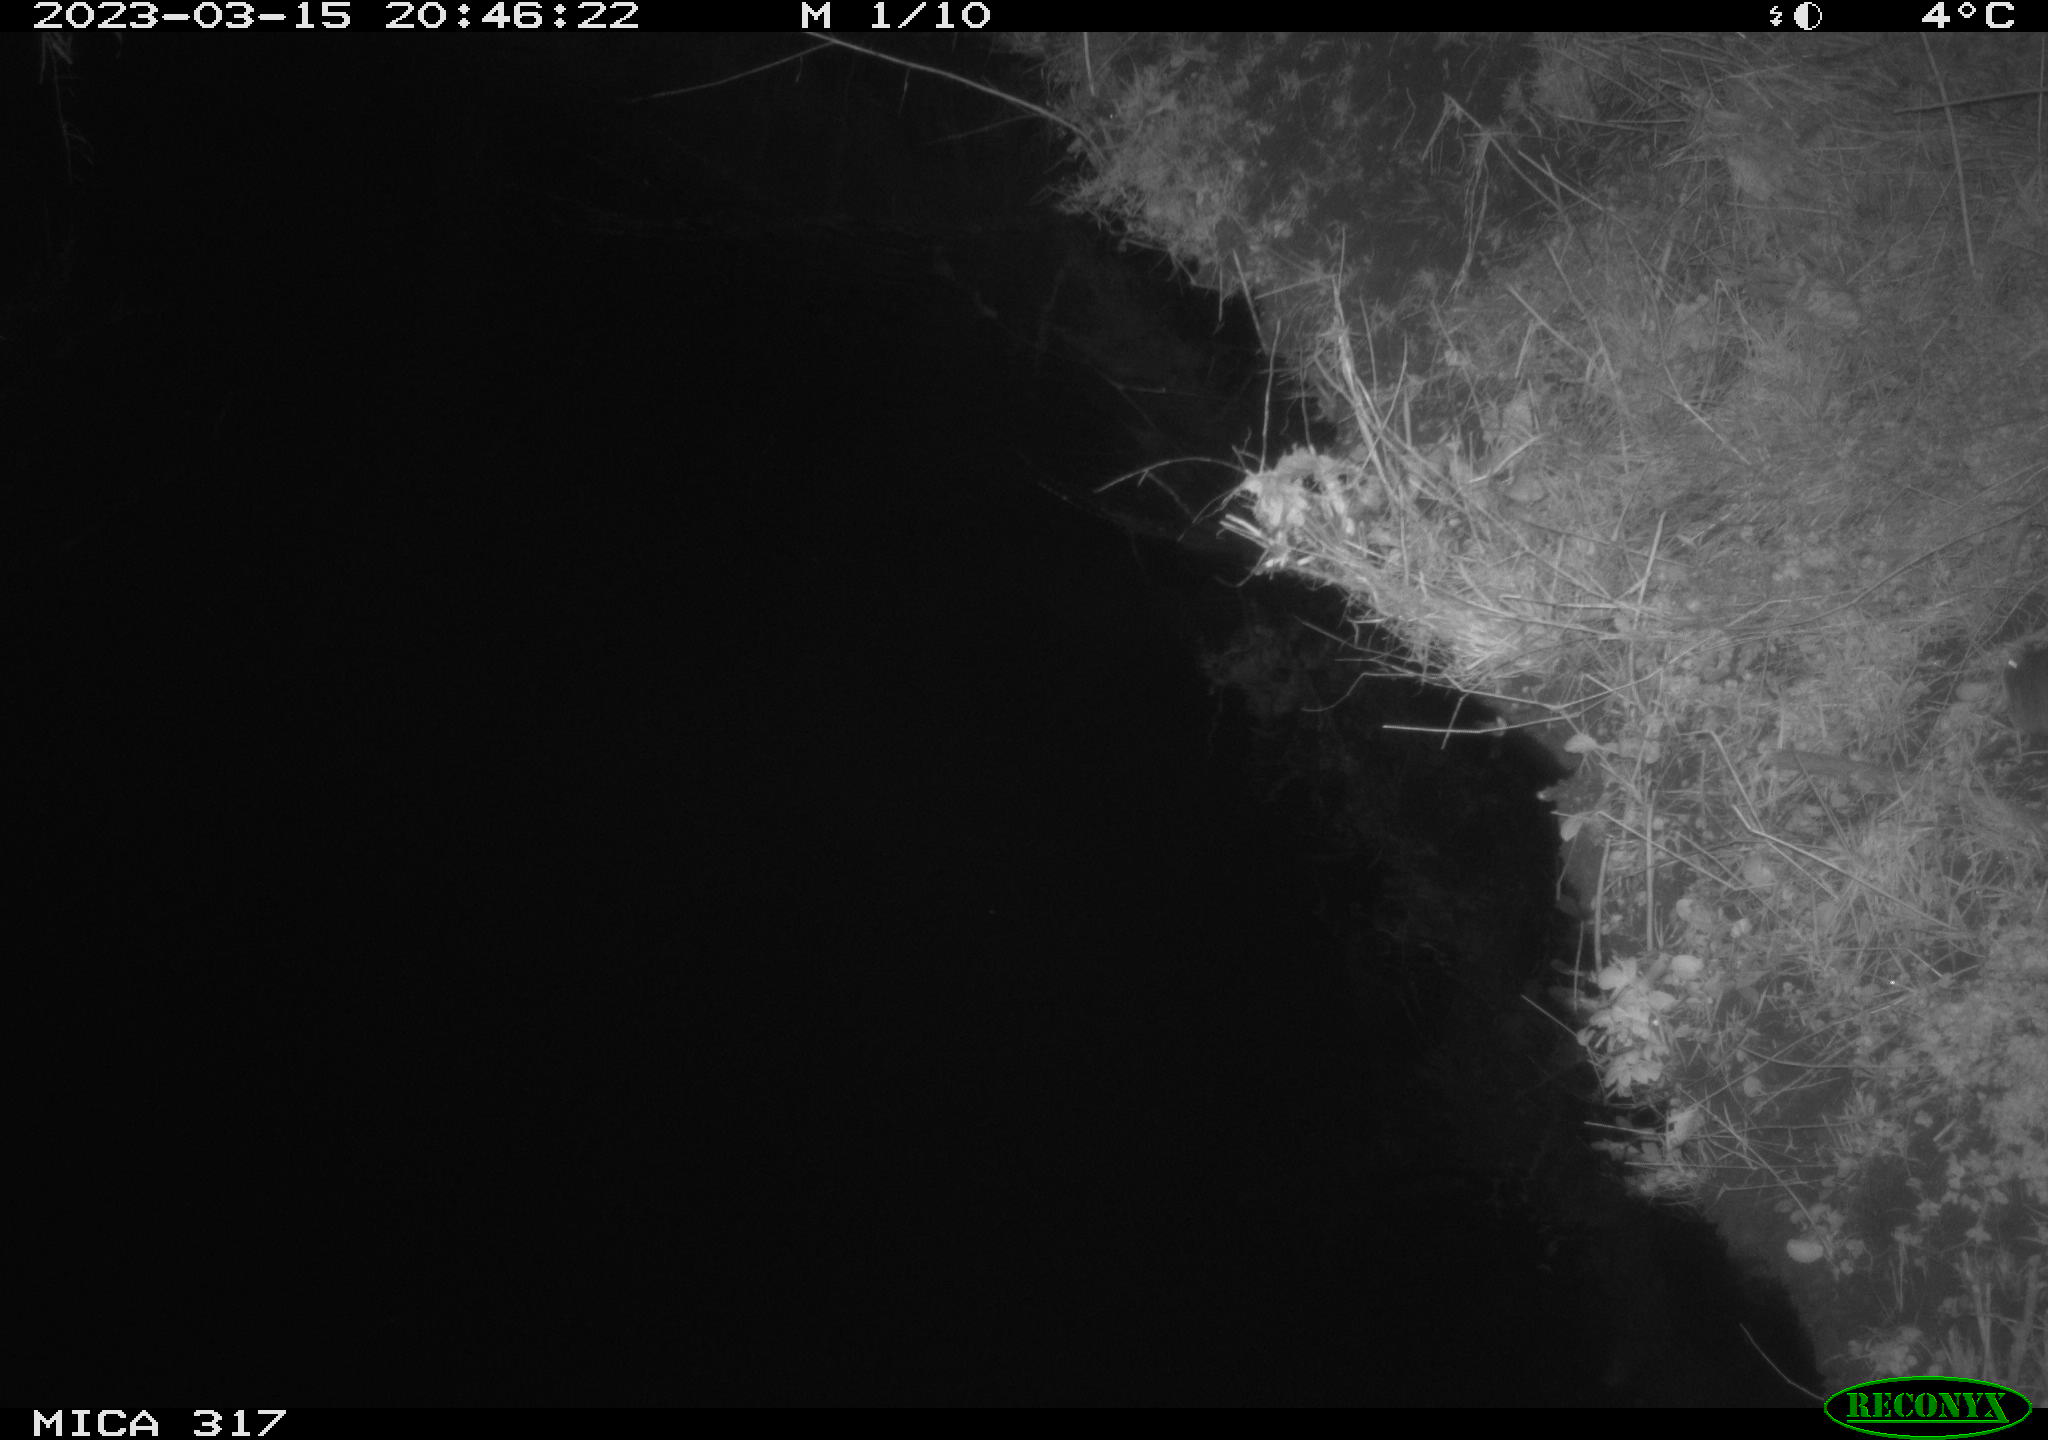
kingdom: Animalia
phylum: Chordata
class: Mammalia
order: Rodentia
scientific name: Rodentia
